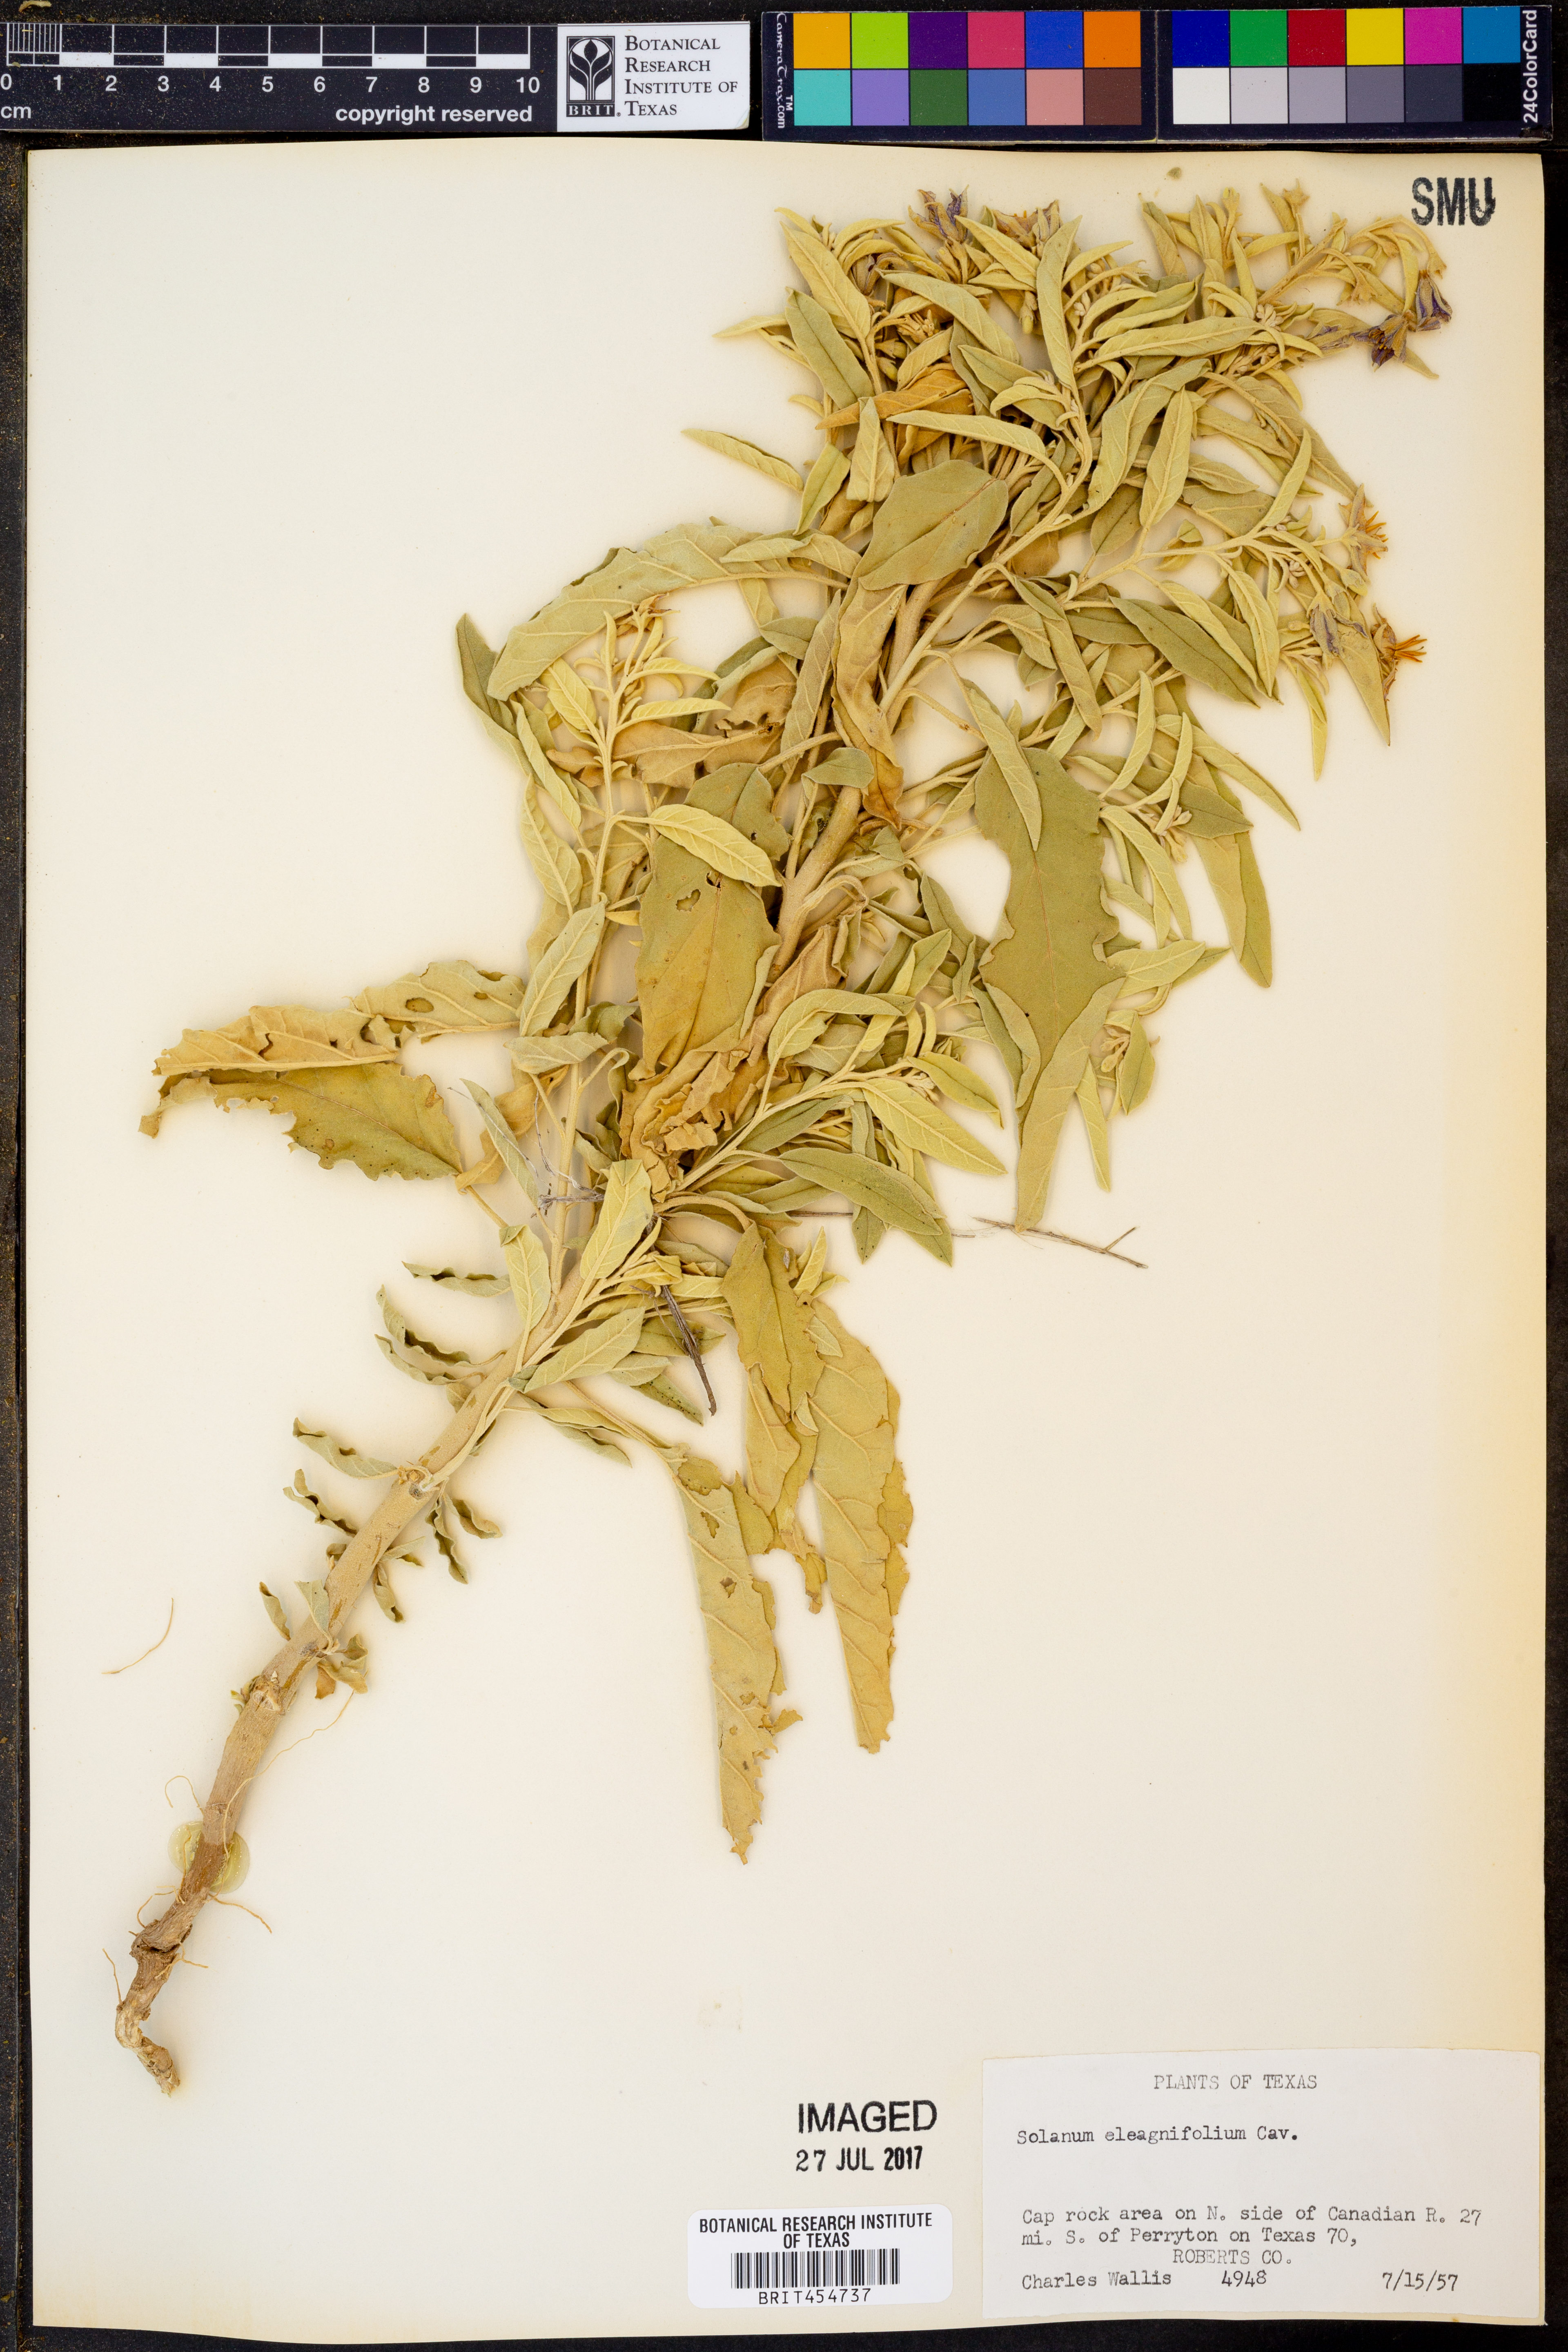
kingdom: Plantae
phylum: Tracheophyta
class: Magnoliopsida
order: Solanales
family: Solanaceae
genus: Solanum
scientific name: Solanum elaeagnifolium
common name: Silverleaf nightshade
